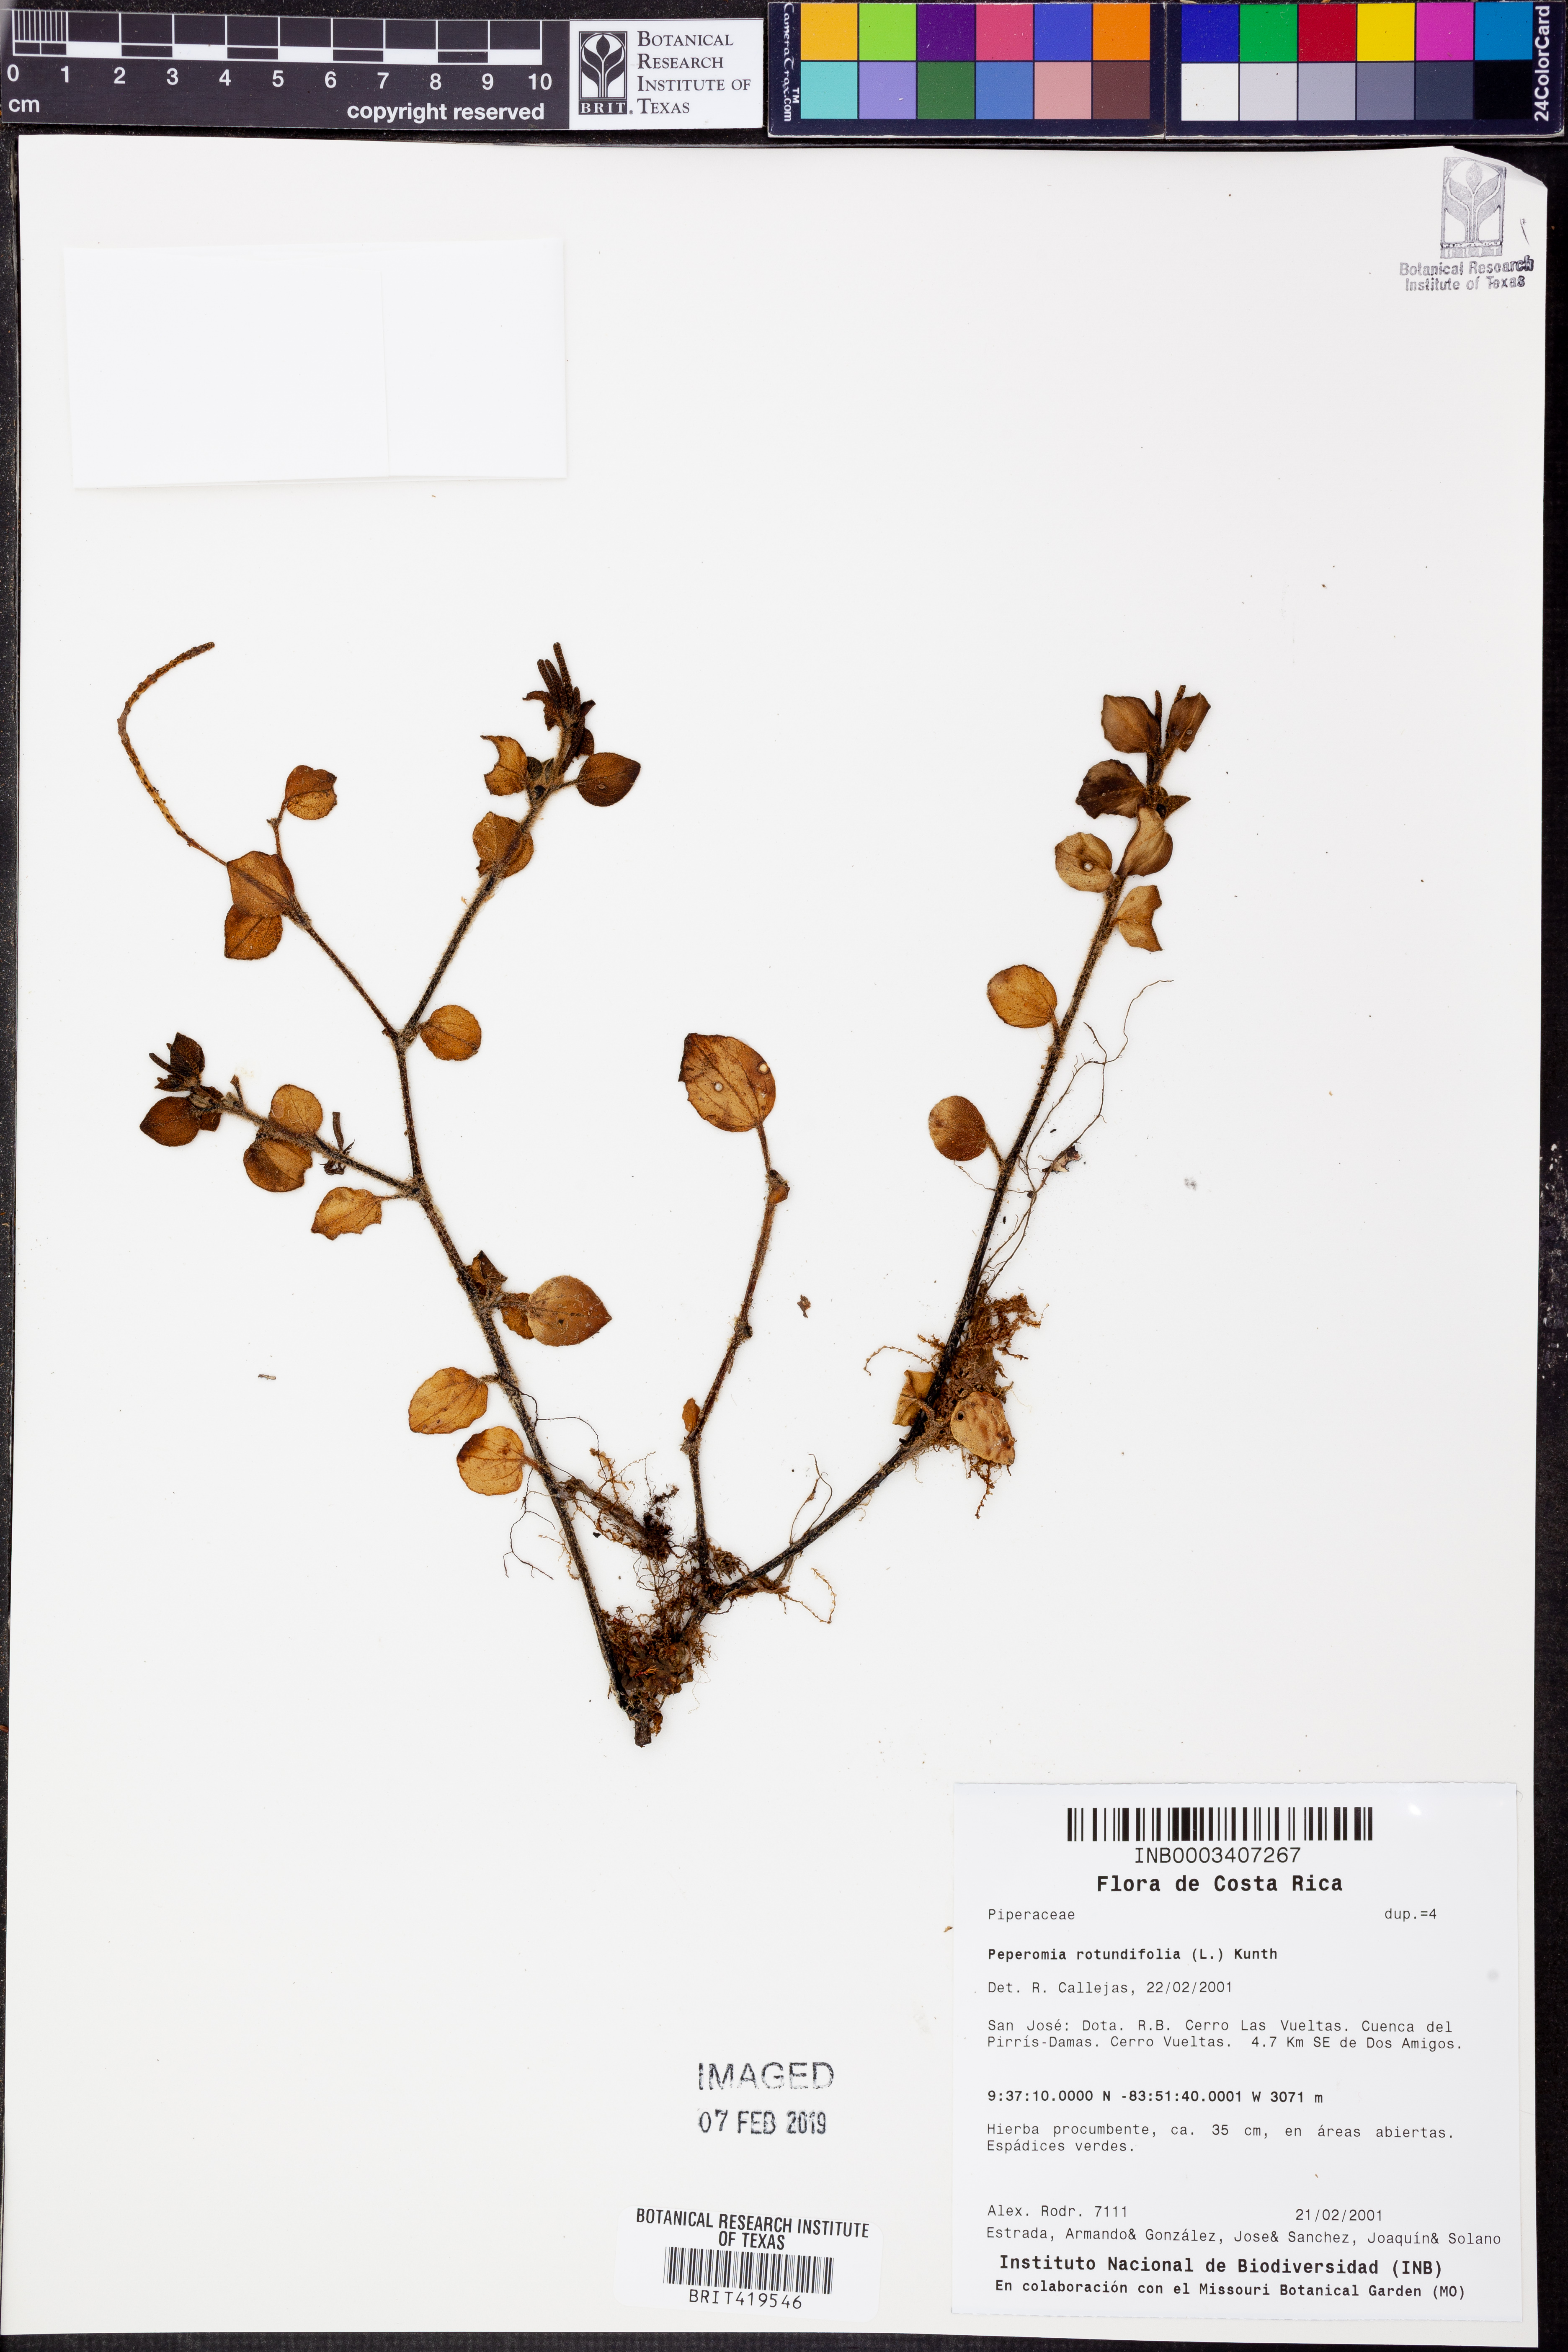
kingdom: Plantae
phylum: Tracheophyta
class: Magnoliopsida
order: Piperales
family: Piperaceae
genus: Peperomia
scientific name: Peperomia rotundifolia
